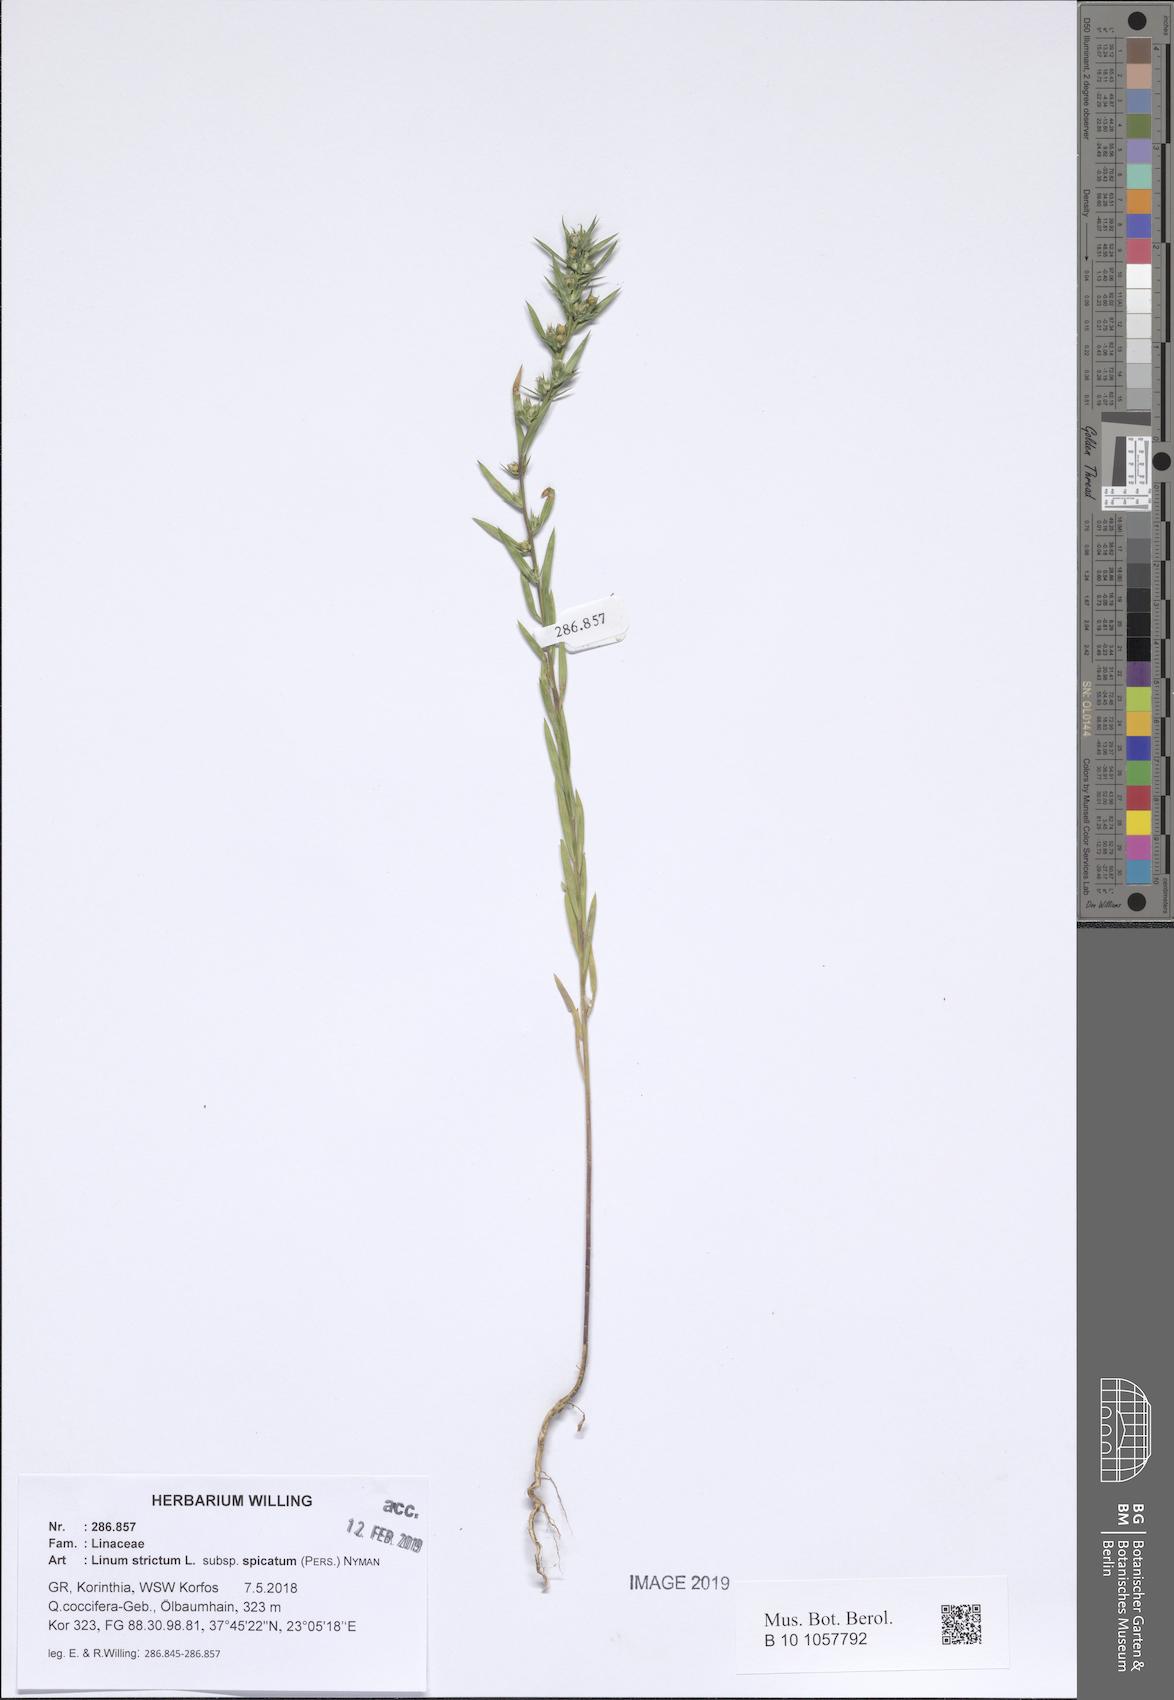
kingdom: Plantae
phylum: Tracheophyta
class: Magnoliopsida
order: Malpighiales
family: Linaceae
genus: Linum
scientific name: Linum strictum
